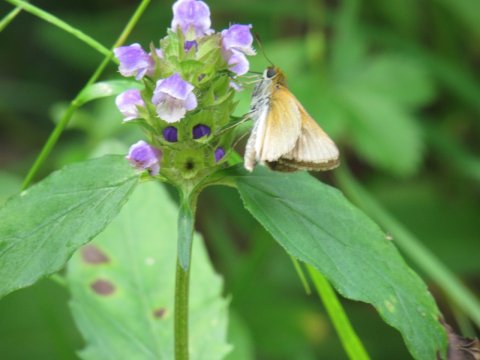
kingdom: Animalia
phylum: Arthropoda
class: Insecta
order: Lepidoptera
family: Hesperiidae
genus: Thymelicus
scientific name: Thymelicus lineola
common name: European Skipper
